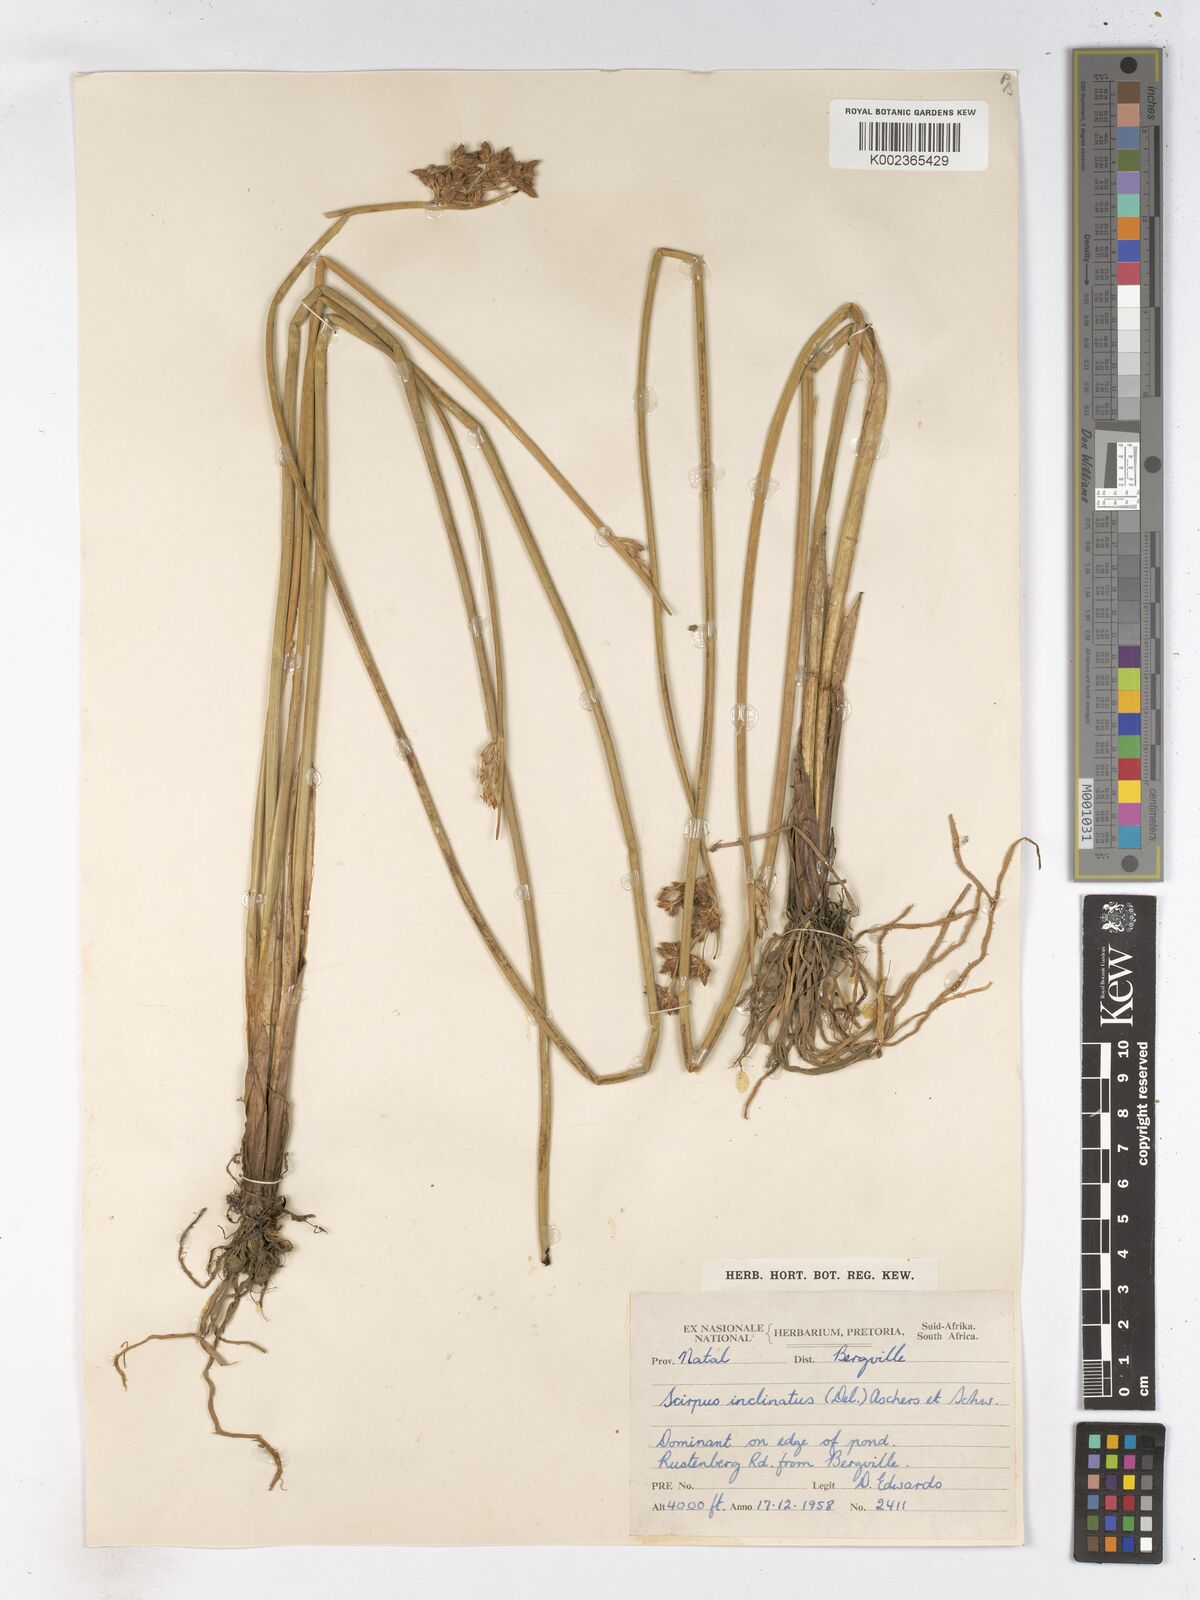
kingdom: Plantae
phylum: Tracheophyta
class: Liliopsida
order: Poales
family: Cyperaceae
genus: Schoenoplectiella
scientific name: Schoenoplectiella brachyceras
